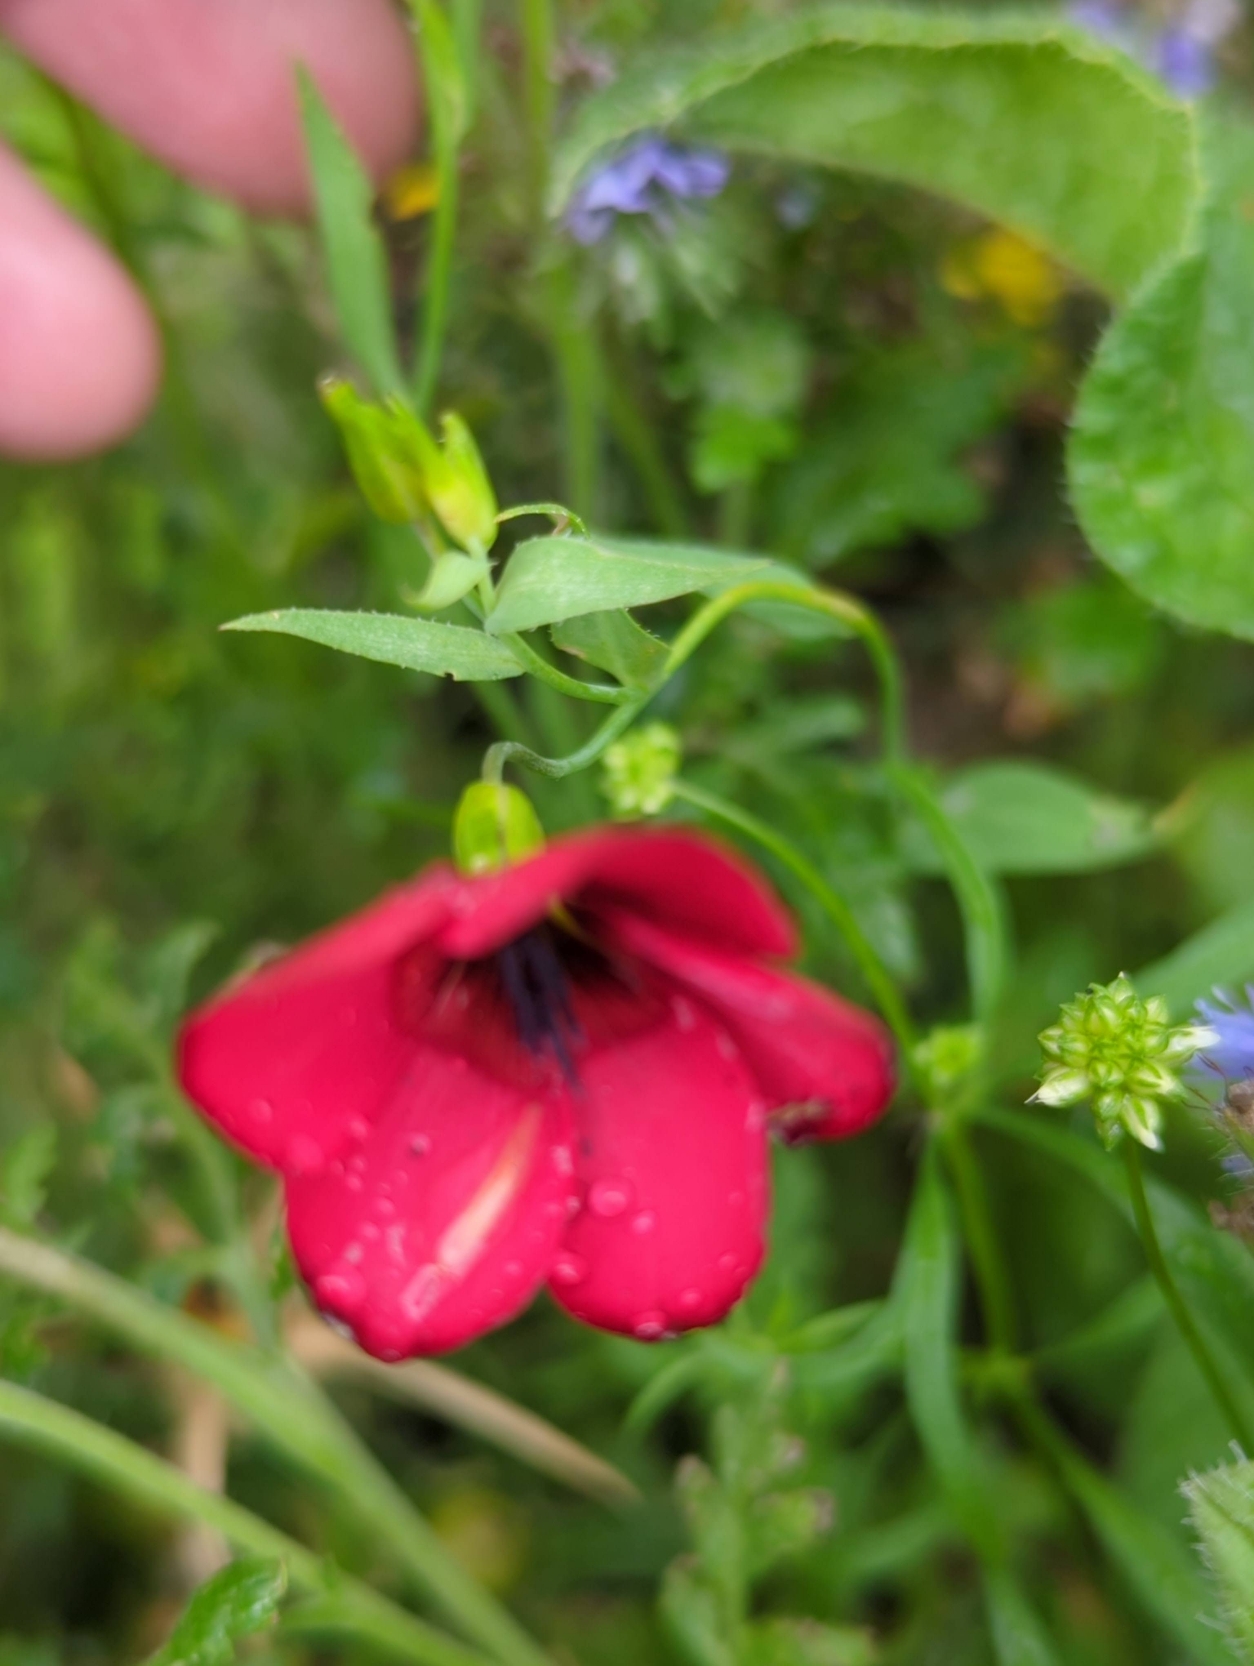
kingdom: Plantae
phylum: Tracheophyta
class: Magnoliopsida
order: Malpighiales
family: Linaceae
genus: Linum
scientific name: Linum grandiflorum
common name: Rød hør
